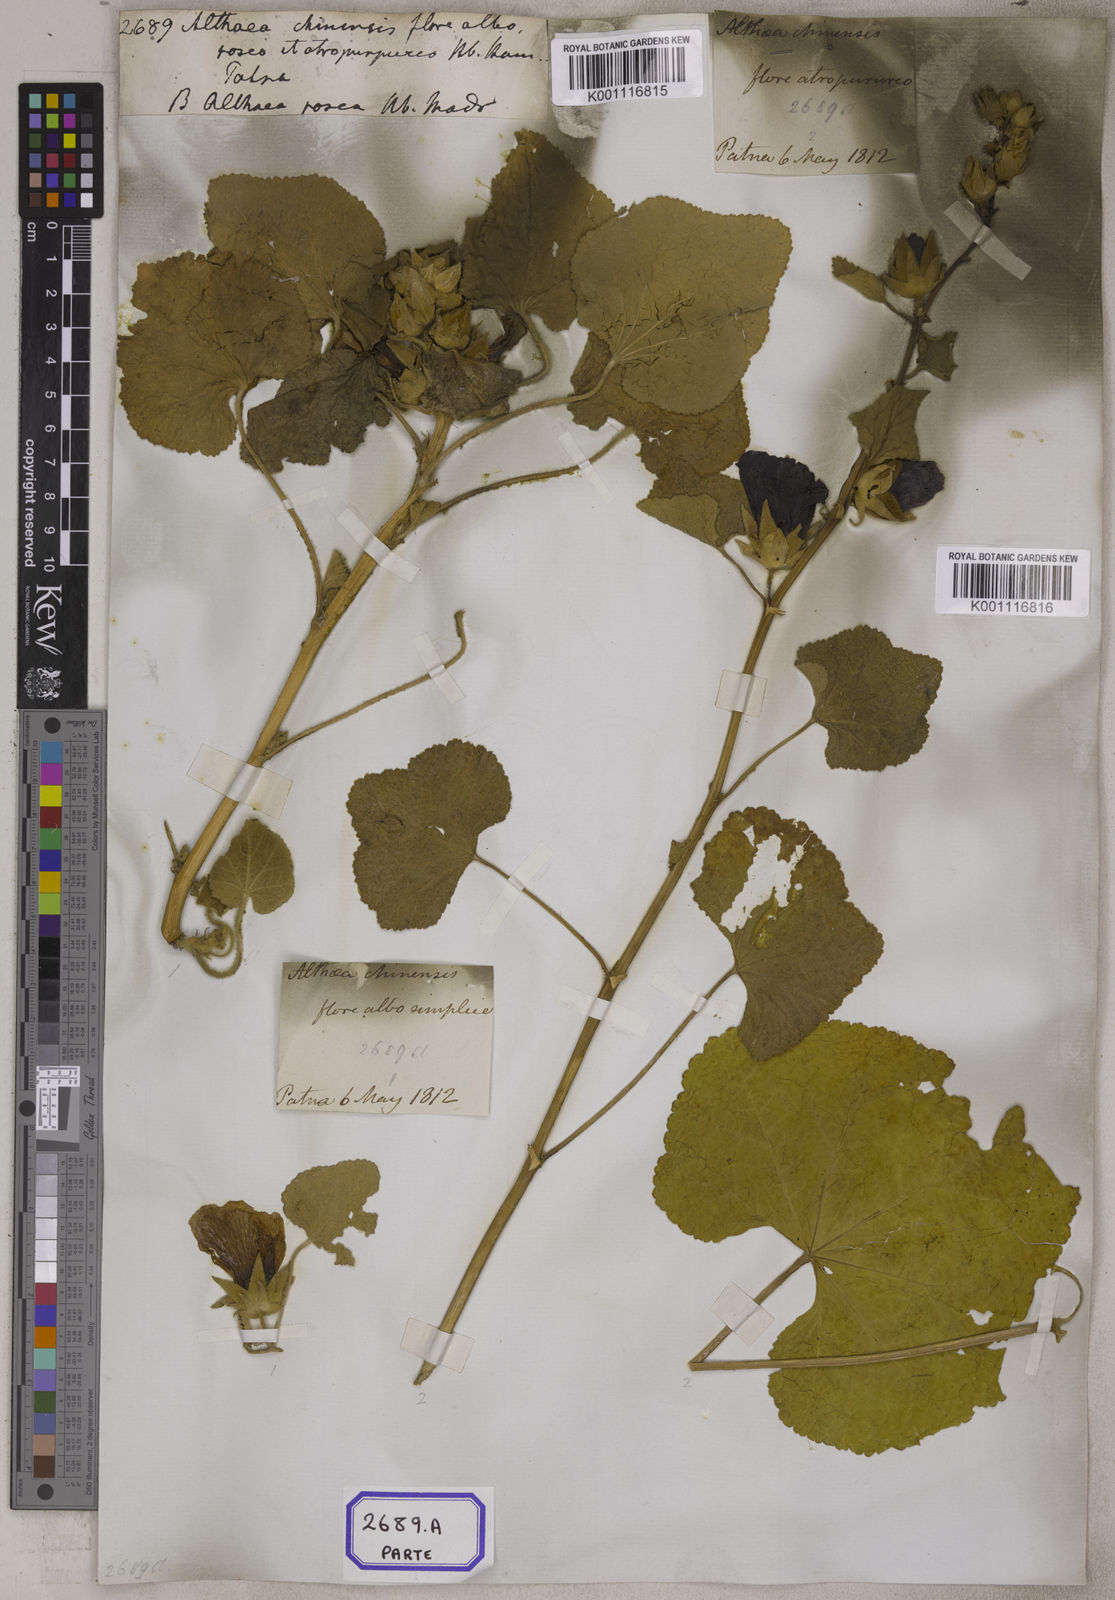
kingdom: Plantae
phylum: Tracheophyta
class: Magnoliopsida
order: Malvales
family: Malvaceae
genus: Alcea
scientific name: Alcea rosea
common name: Hollyhock
